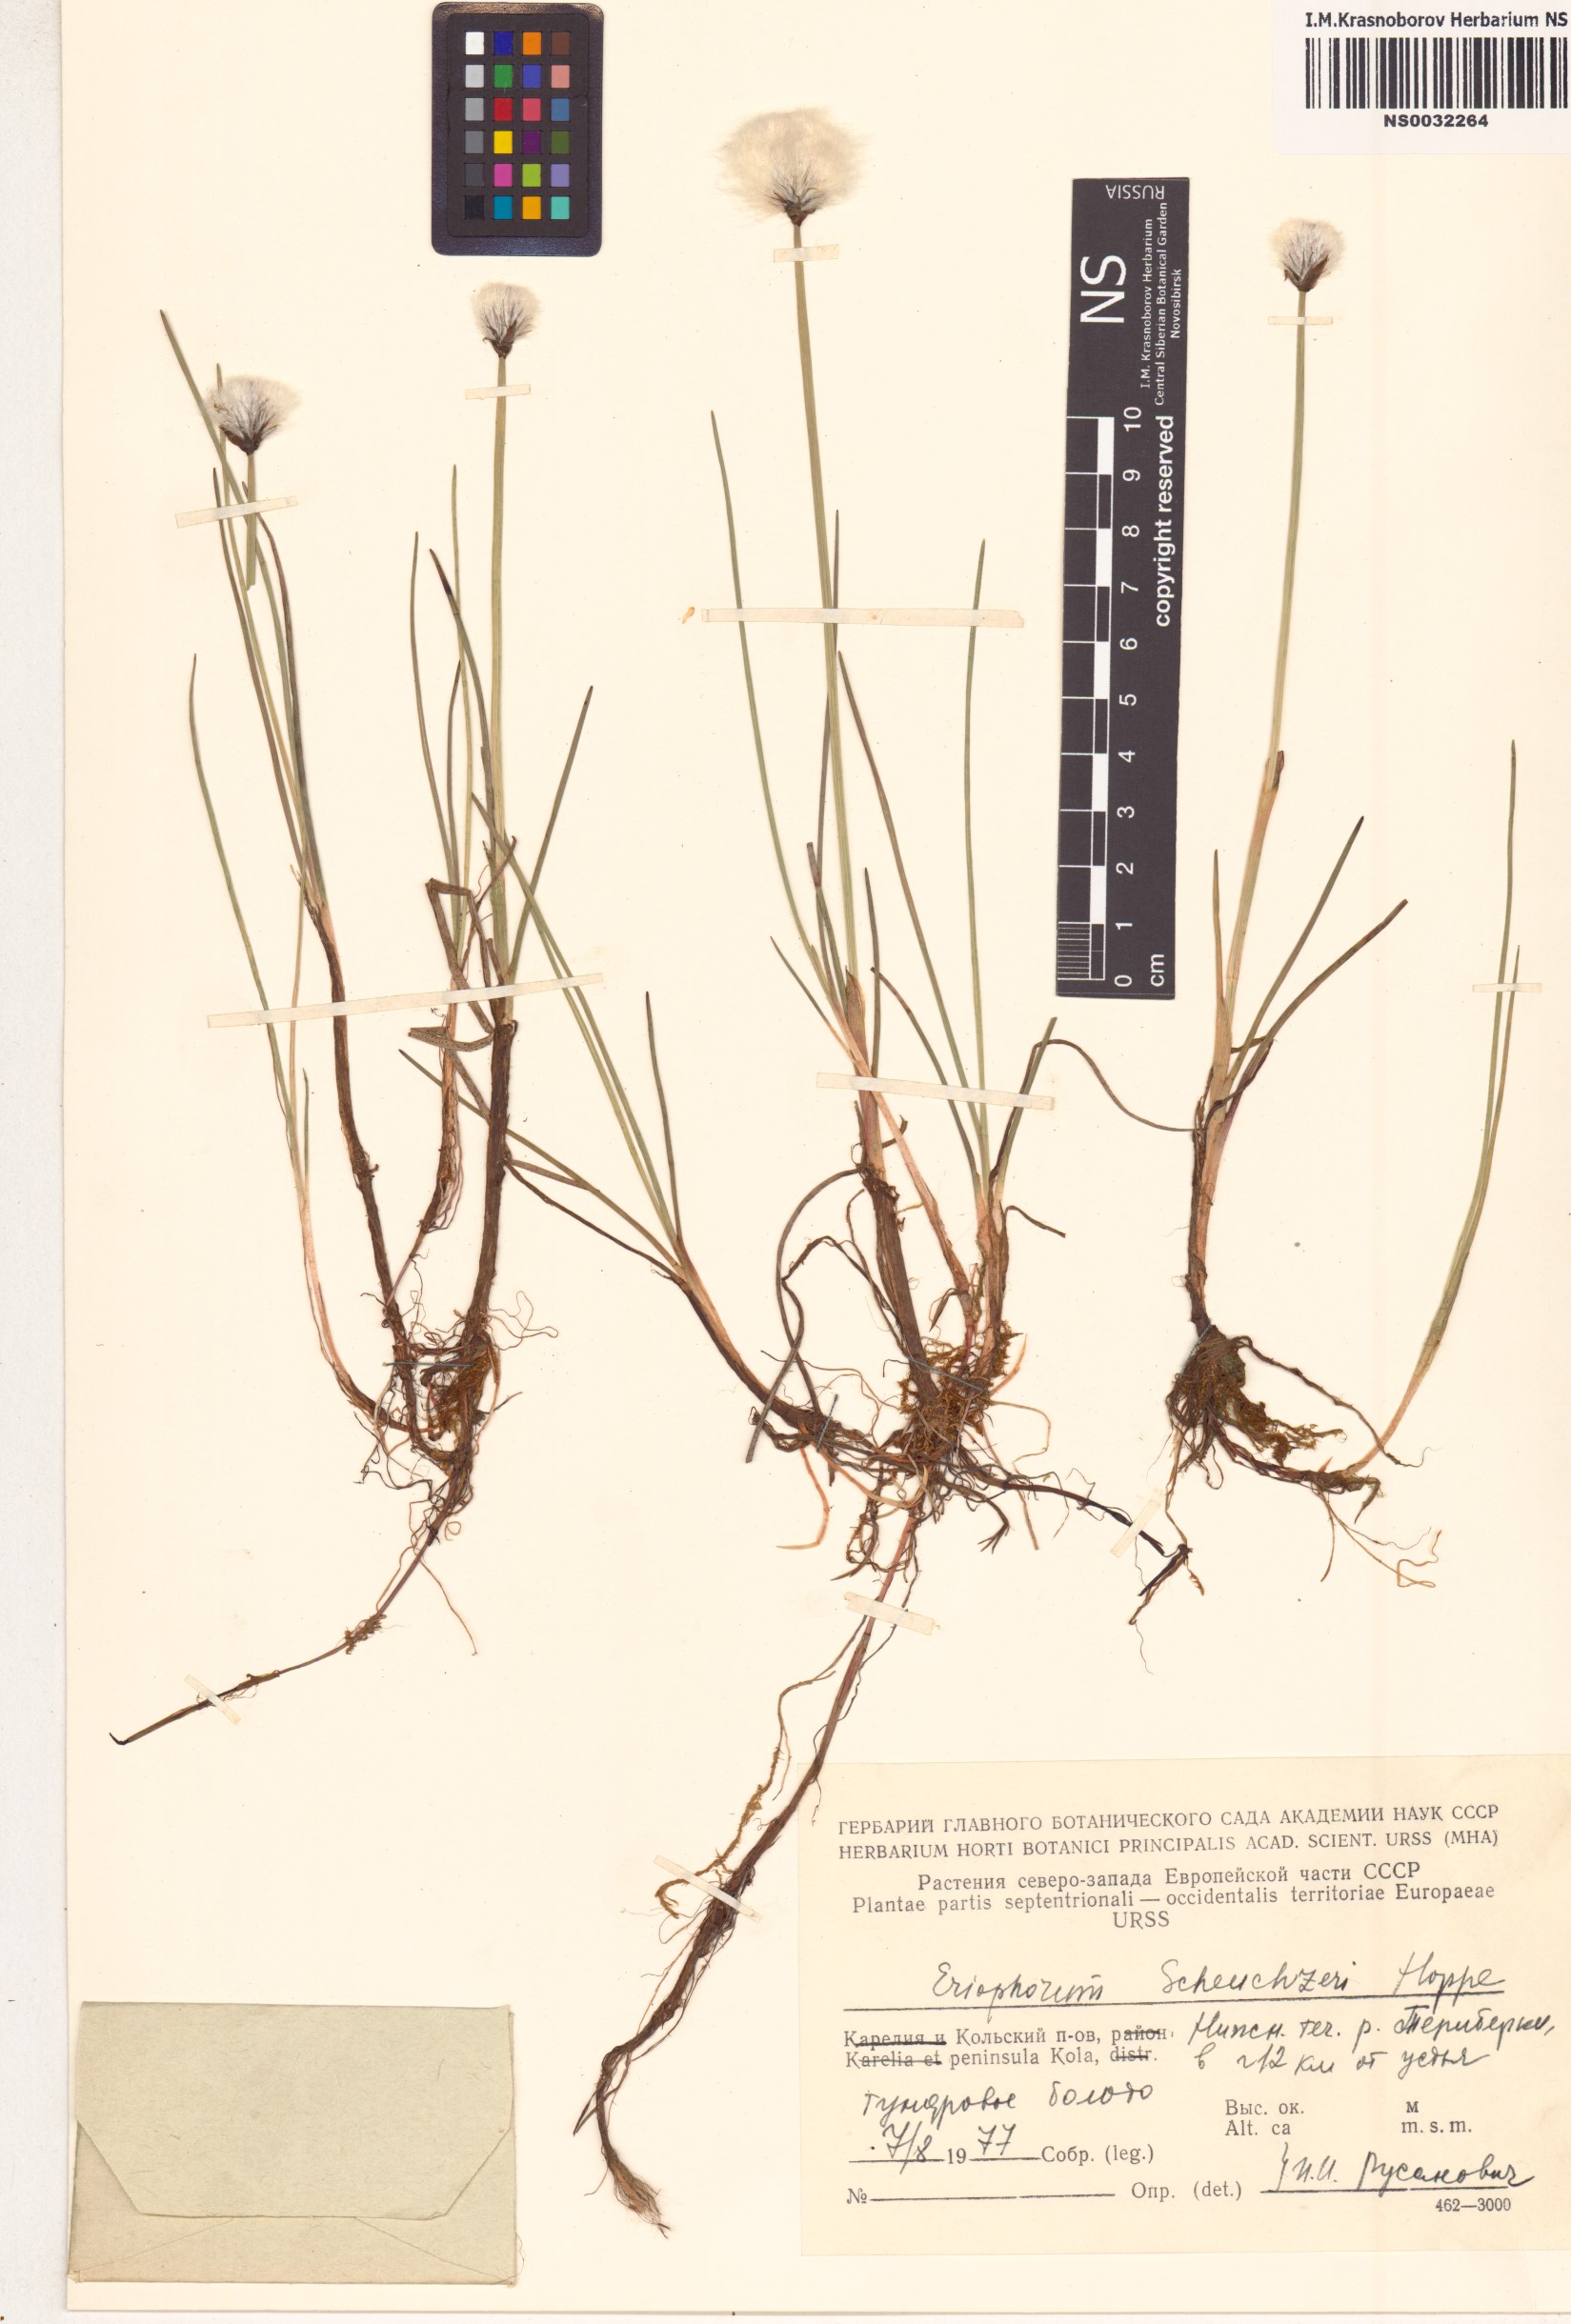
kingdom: Plantae
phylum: Tracheophyta
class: Liliopsida
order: Poales
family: Cyperaceae
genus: Eriophorum
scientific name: Eriophorum scheuchzeri
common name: Scheuchzer's cottongrass
